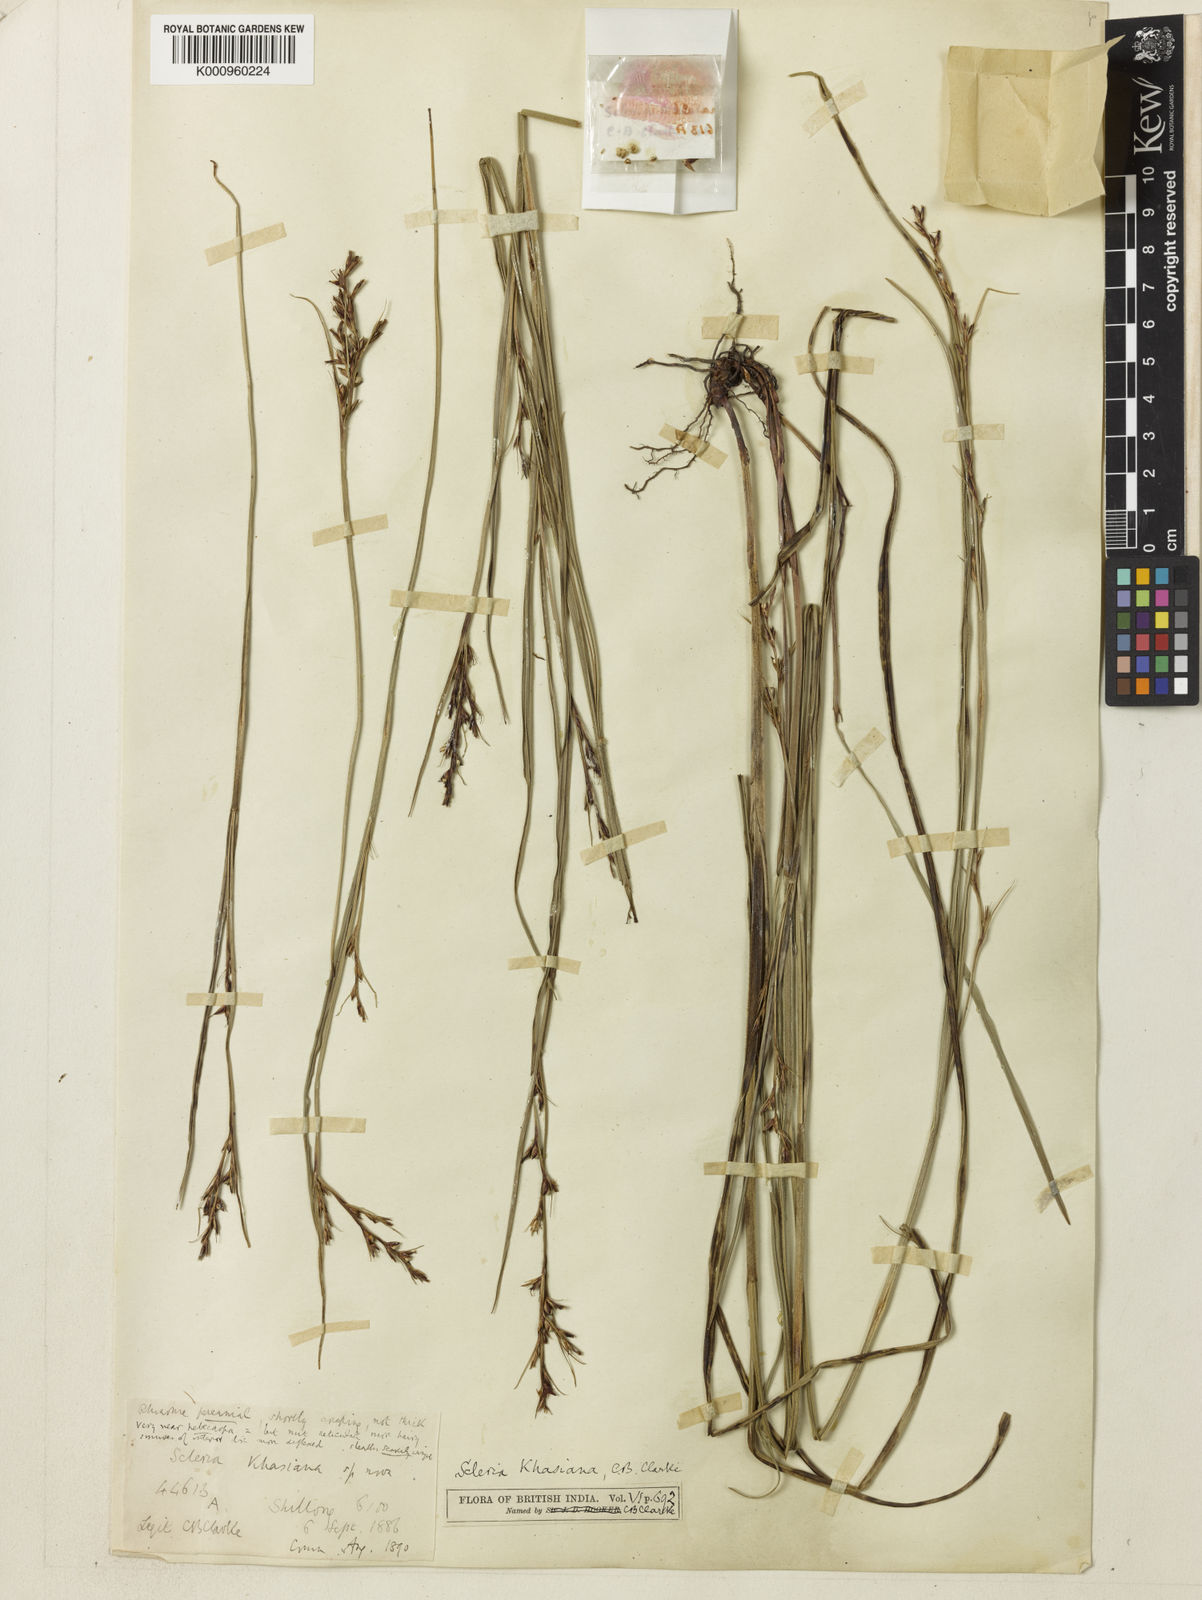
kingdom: Plantae
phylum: Tracheophyta
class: Liliopsida
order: Poales
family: Cyperaceae
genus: Scleria
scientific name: Scleria
